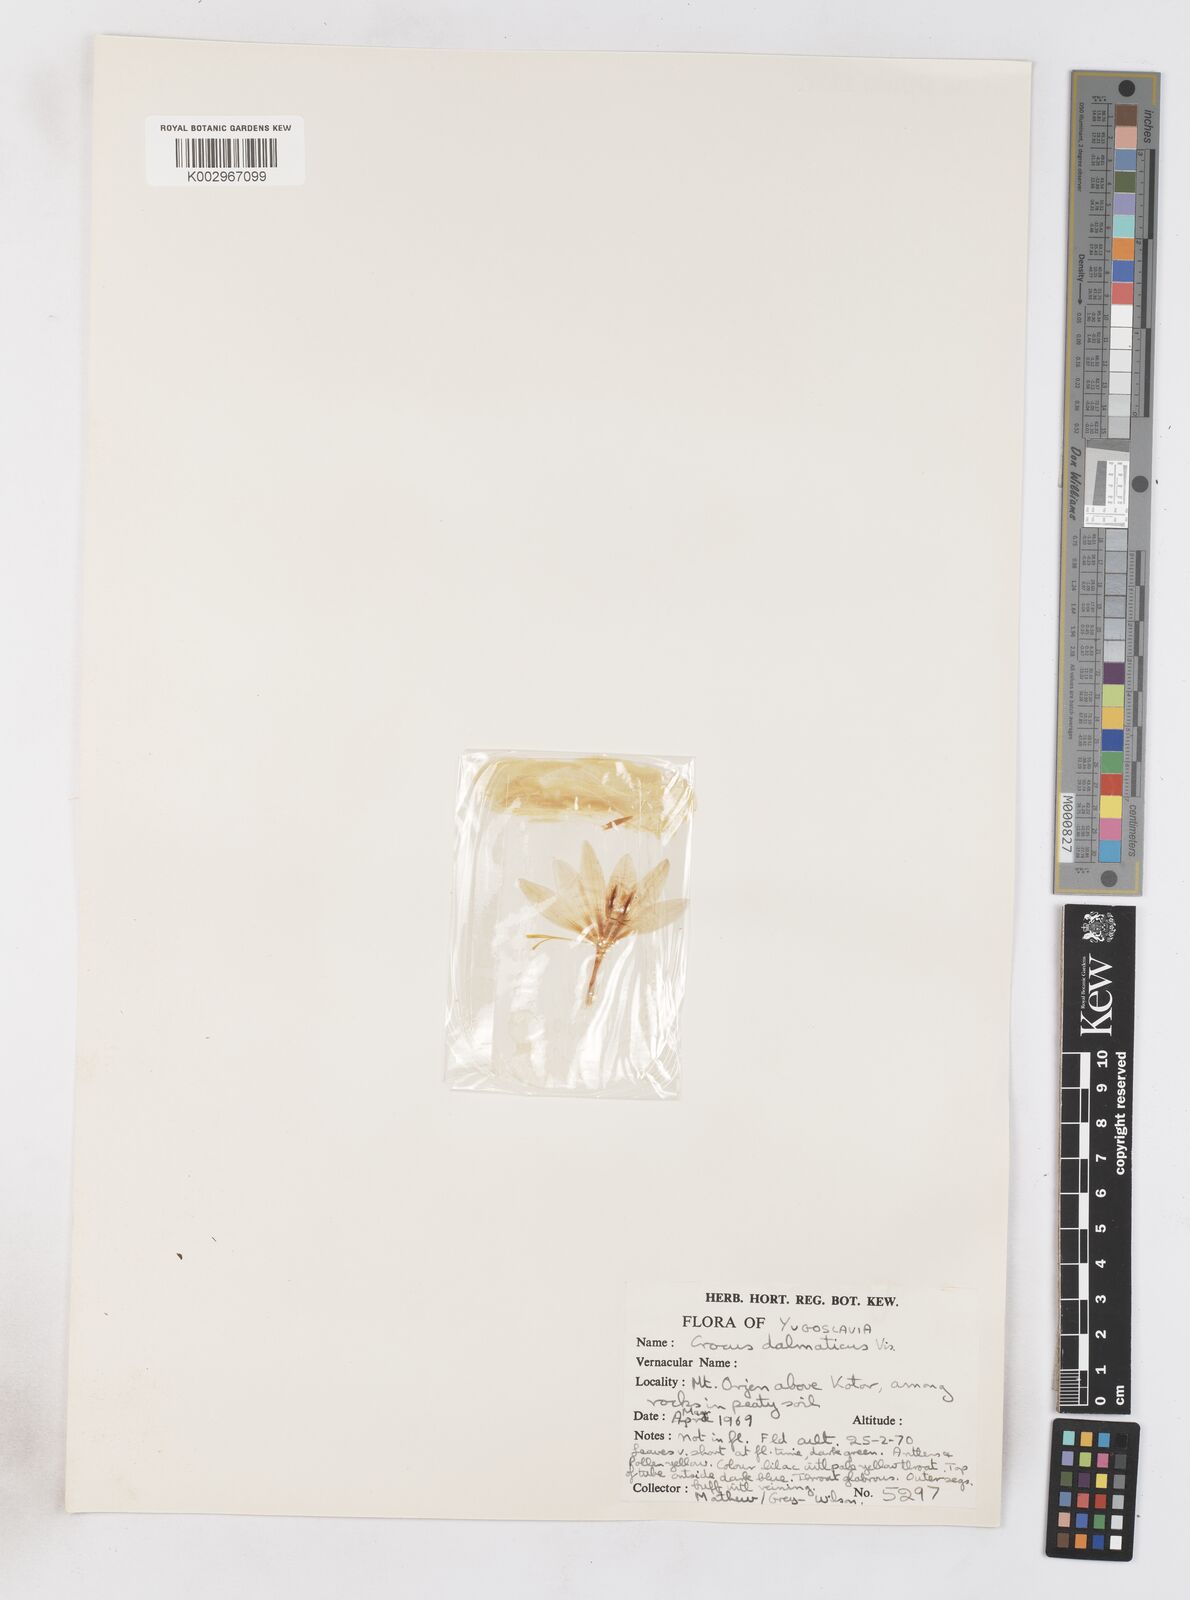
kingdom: Plantae
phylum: Tracheophyta
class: Liliopsida
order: Asparagales
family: Iridaceae
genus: Crocus
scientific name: Crocus dalmaticus
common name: Dalmatian saffron
